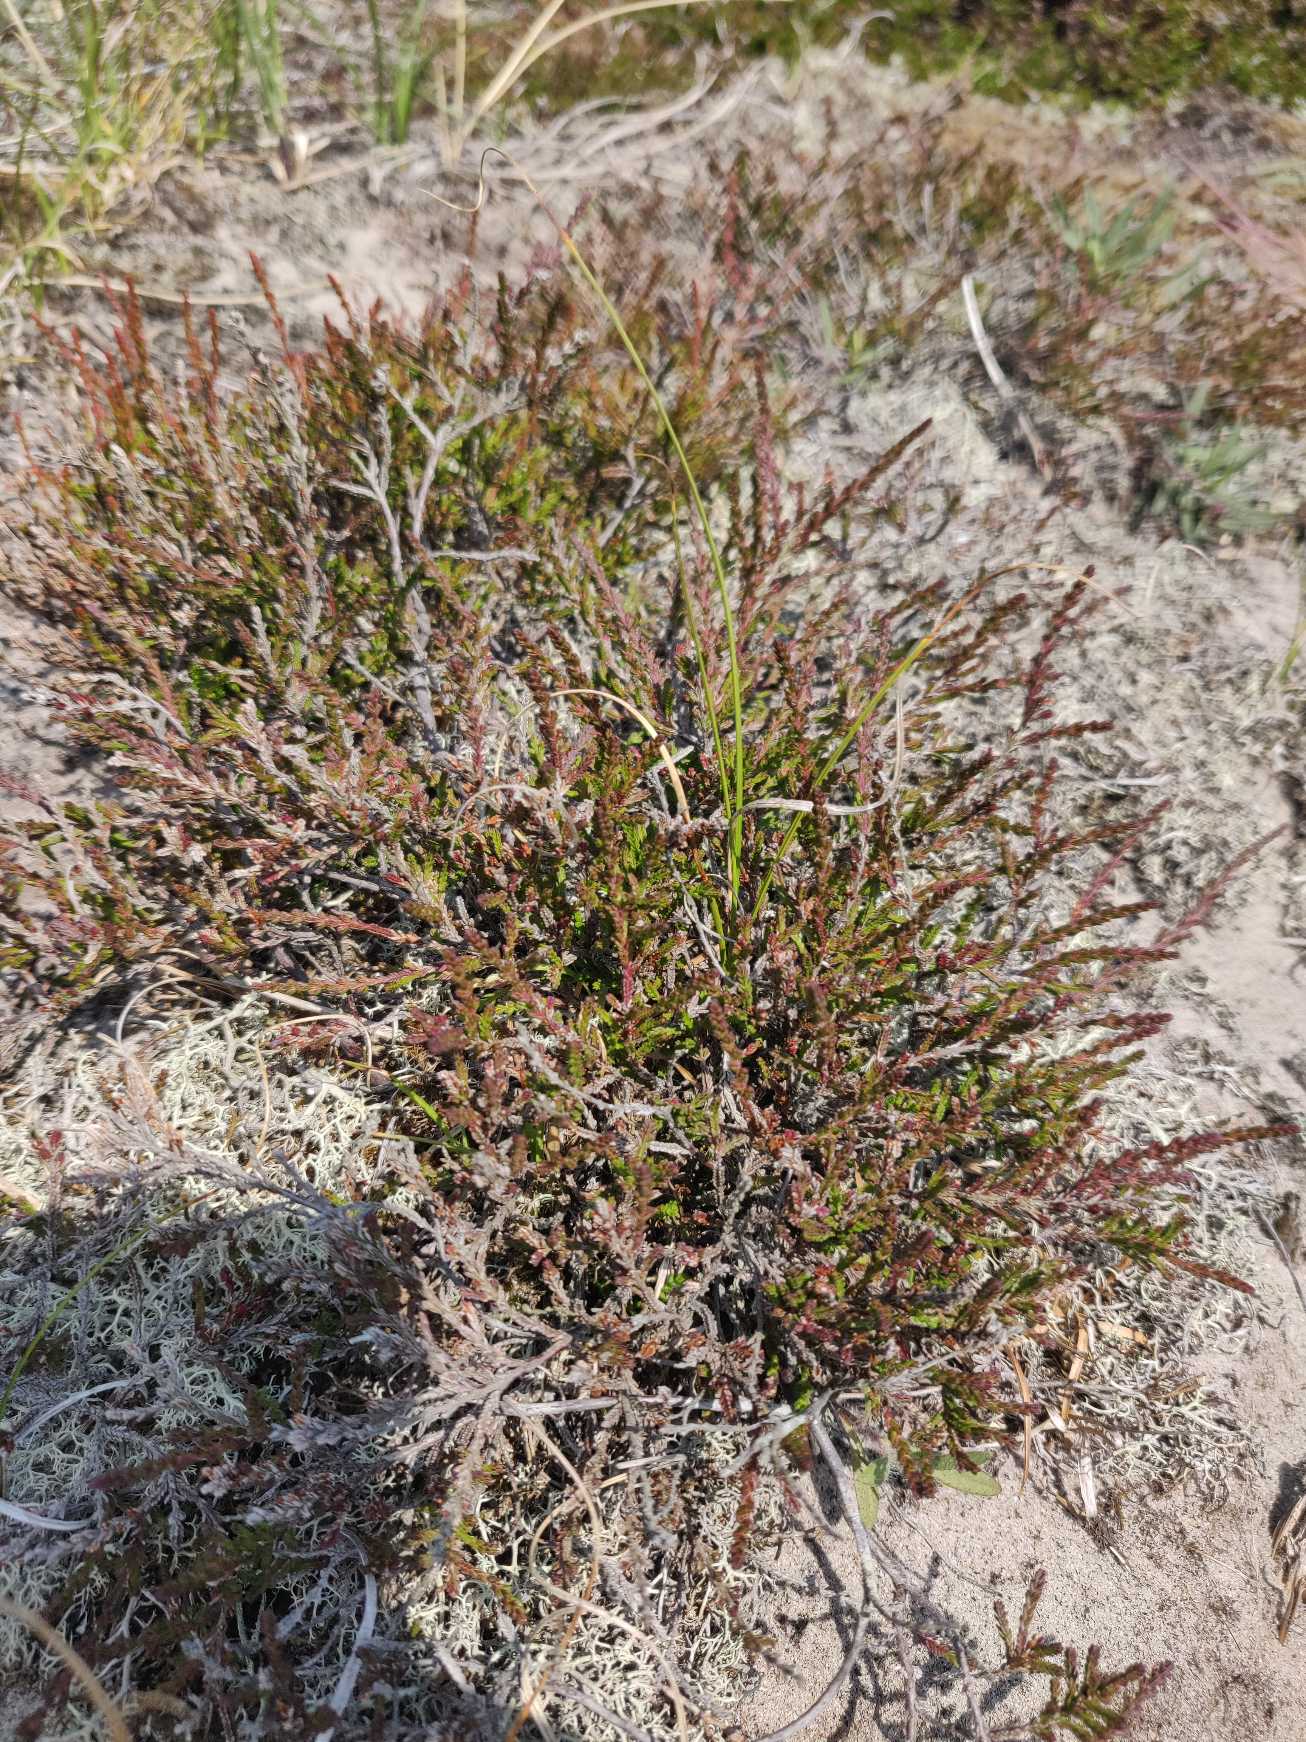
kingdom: Plantae
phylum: Tracheophyta
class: Magnoliopsida
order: Ericales
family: Ericaceae
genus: Calluna
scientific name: Calluna vulgaris
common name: Hedelyng
